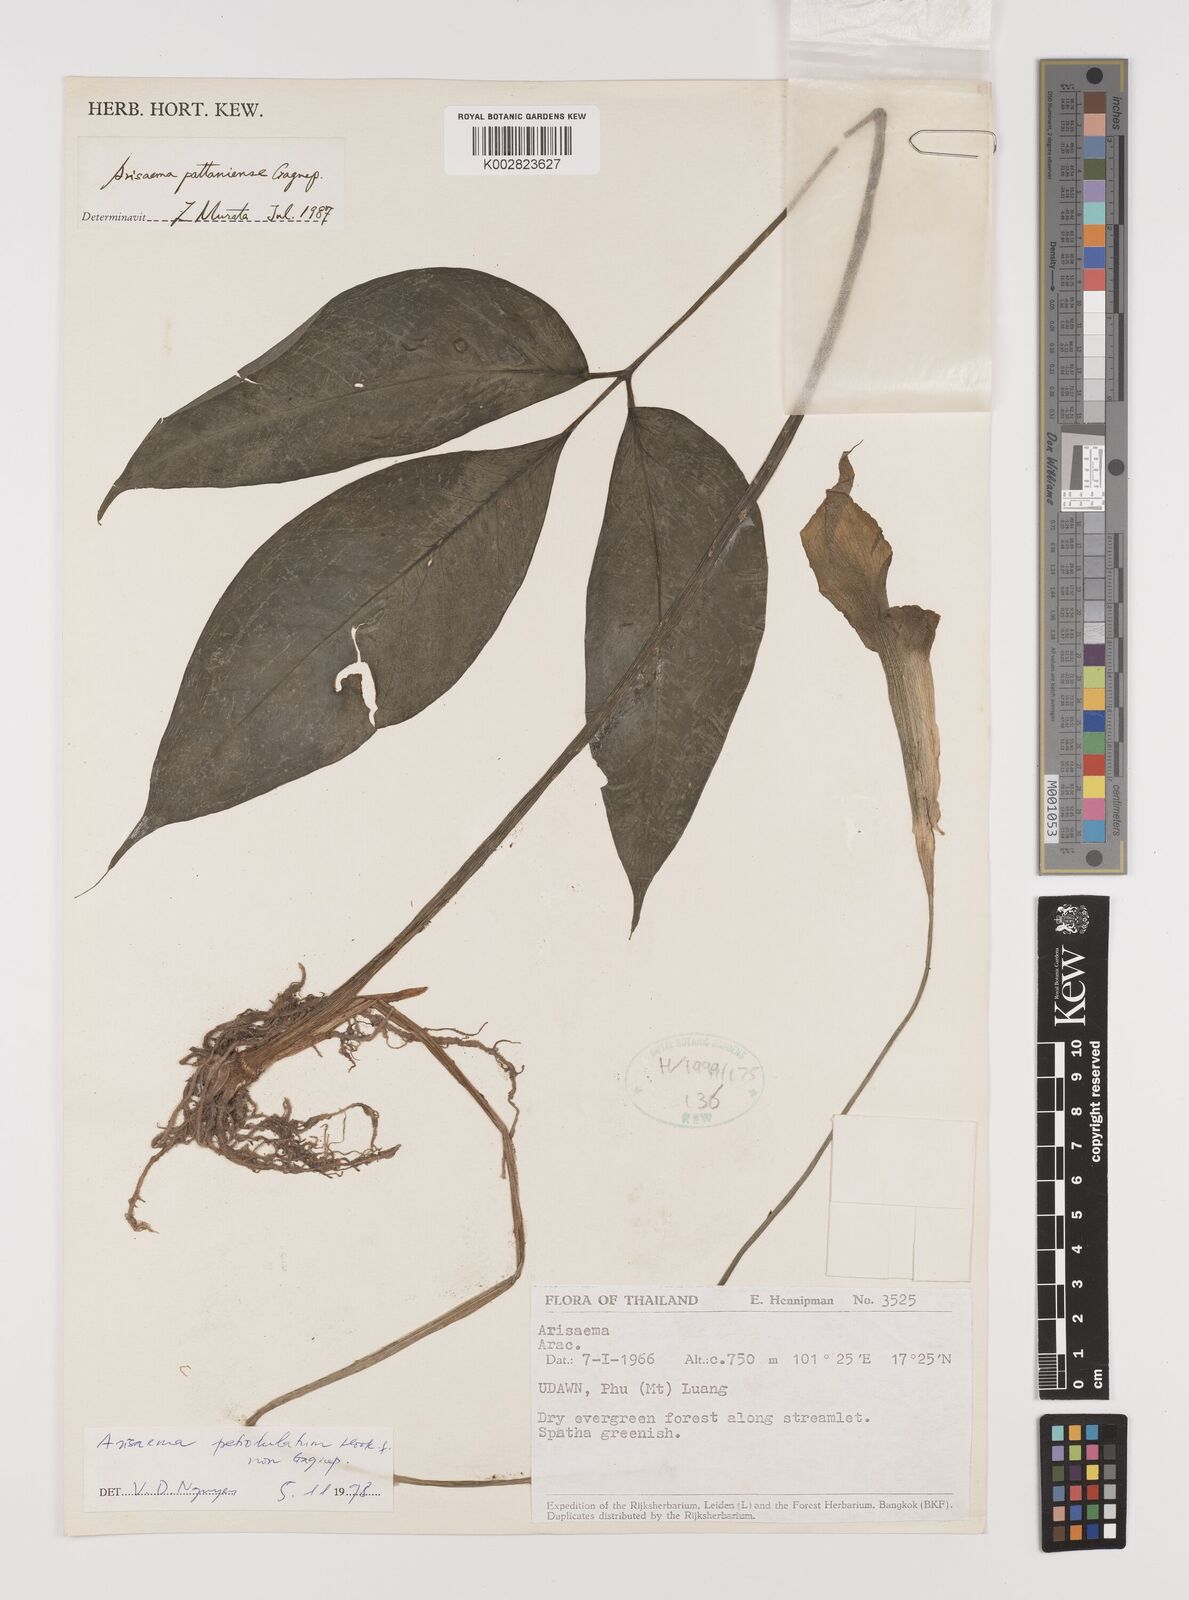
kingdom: Plantae
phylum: Tracheophyta
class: Liliopsida
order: Alismatales
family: Araceae
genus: Arisaema
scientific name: Arisaema petiolulatum
